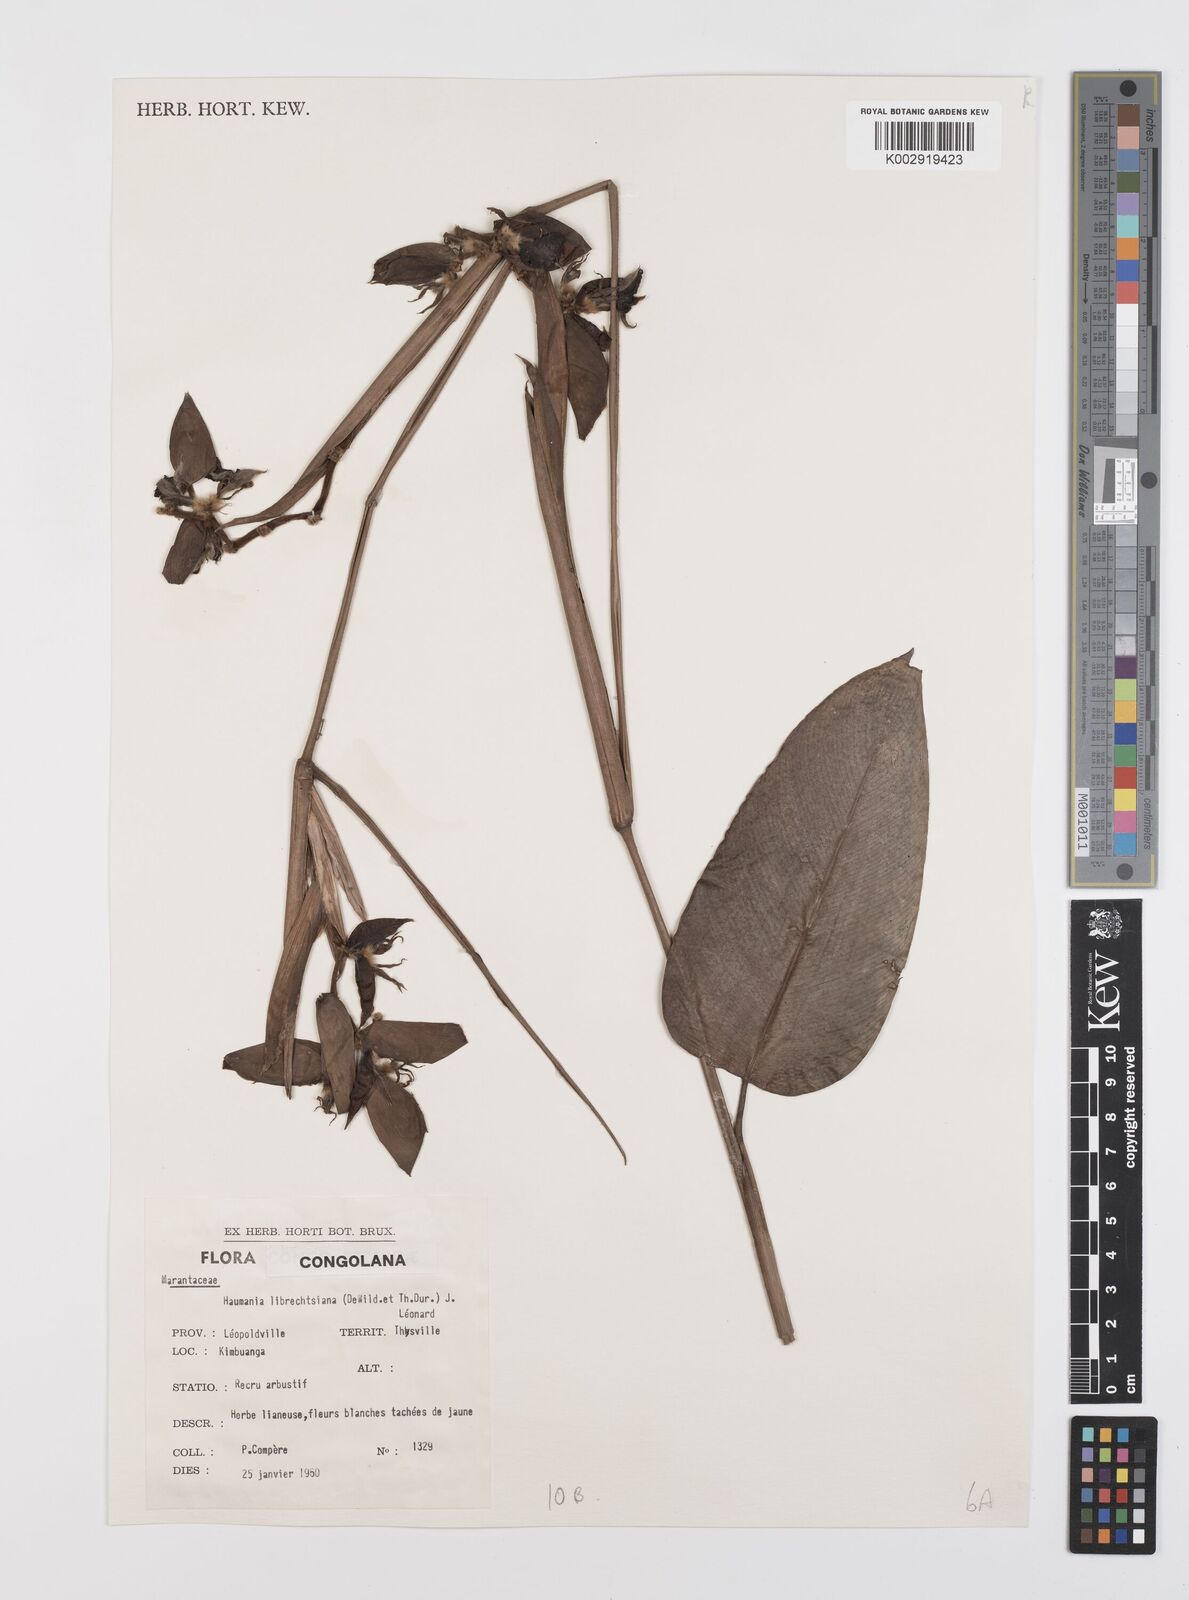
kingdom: Plantae
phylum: Tracheophyta
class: Liliopsida
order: Zingiberales
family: Marantaceae
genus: Haumania
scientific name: Haumania liebrechtsiana
